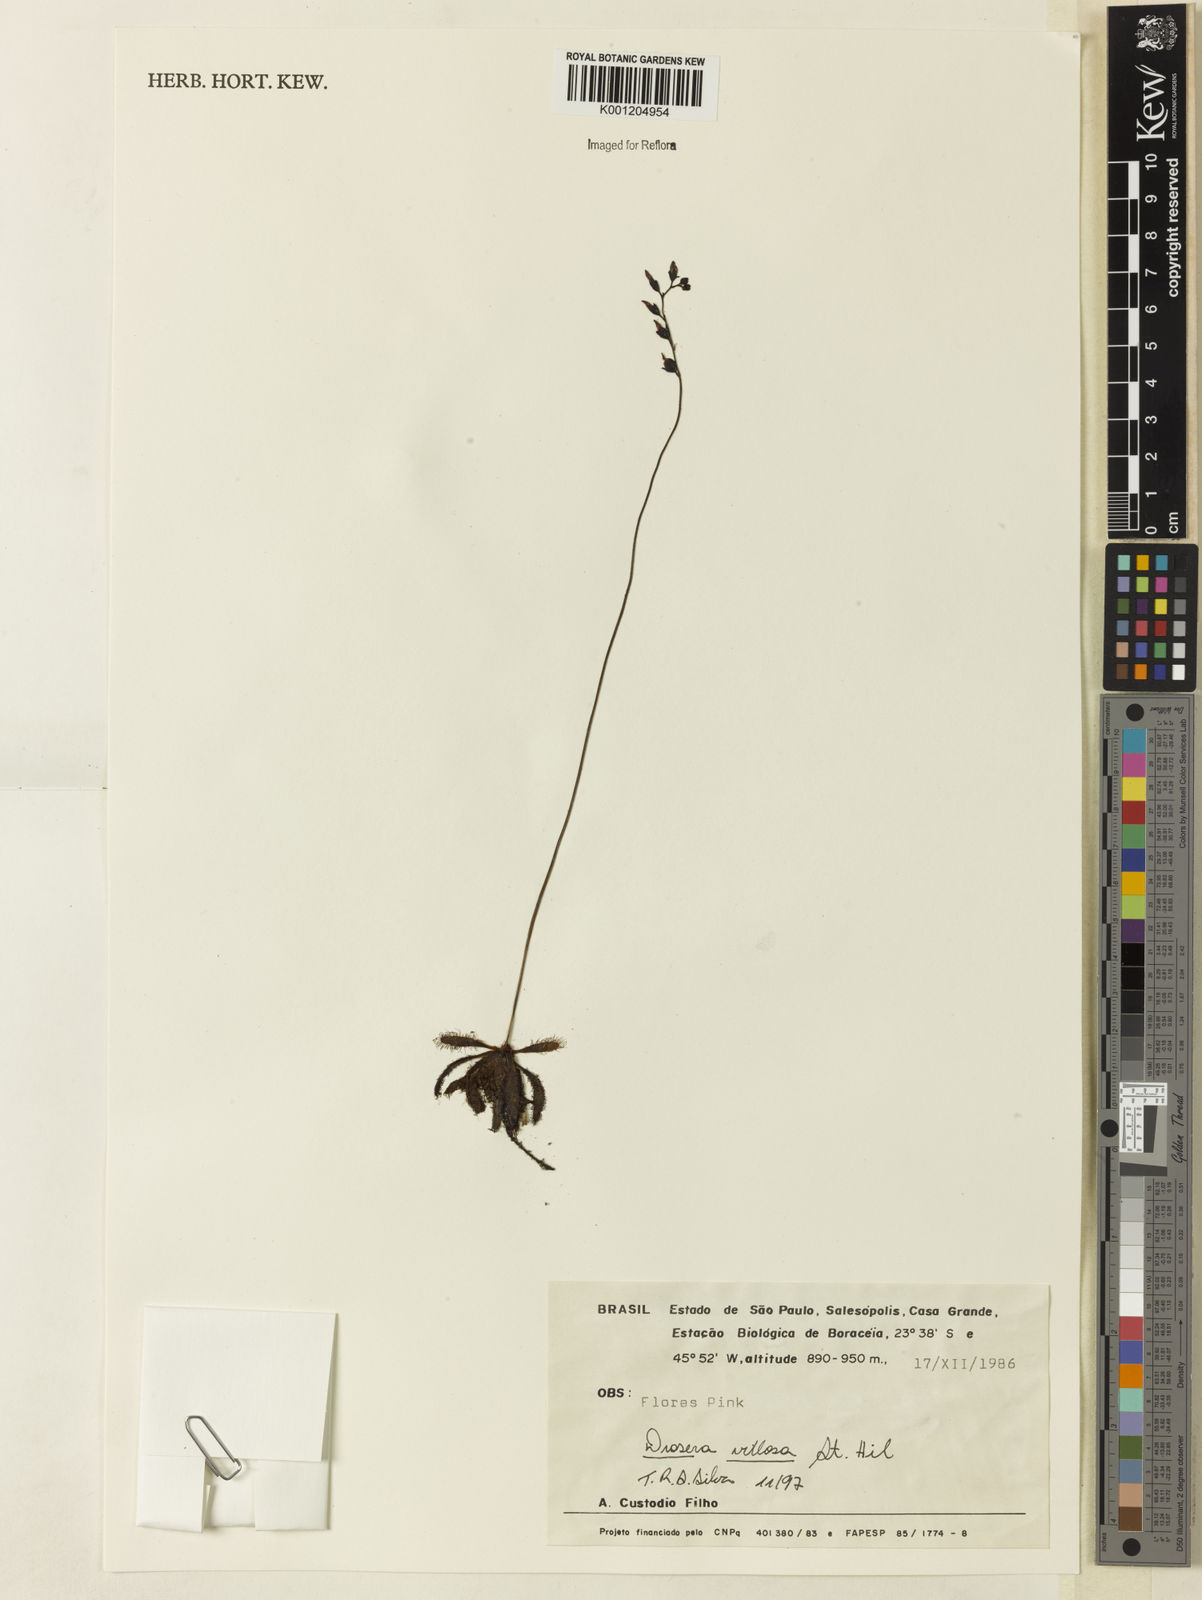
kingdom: Plantae
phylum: Tracheophyta
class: Magnoliopsida
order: Caryophyllales
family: Droseraceae
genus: Drosera
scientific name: Drosera villosa
